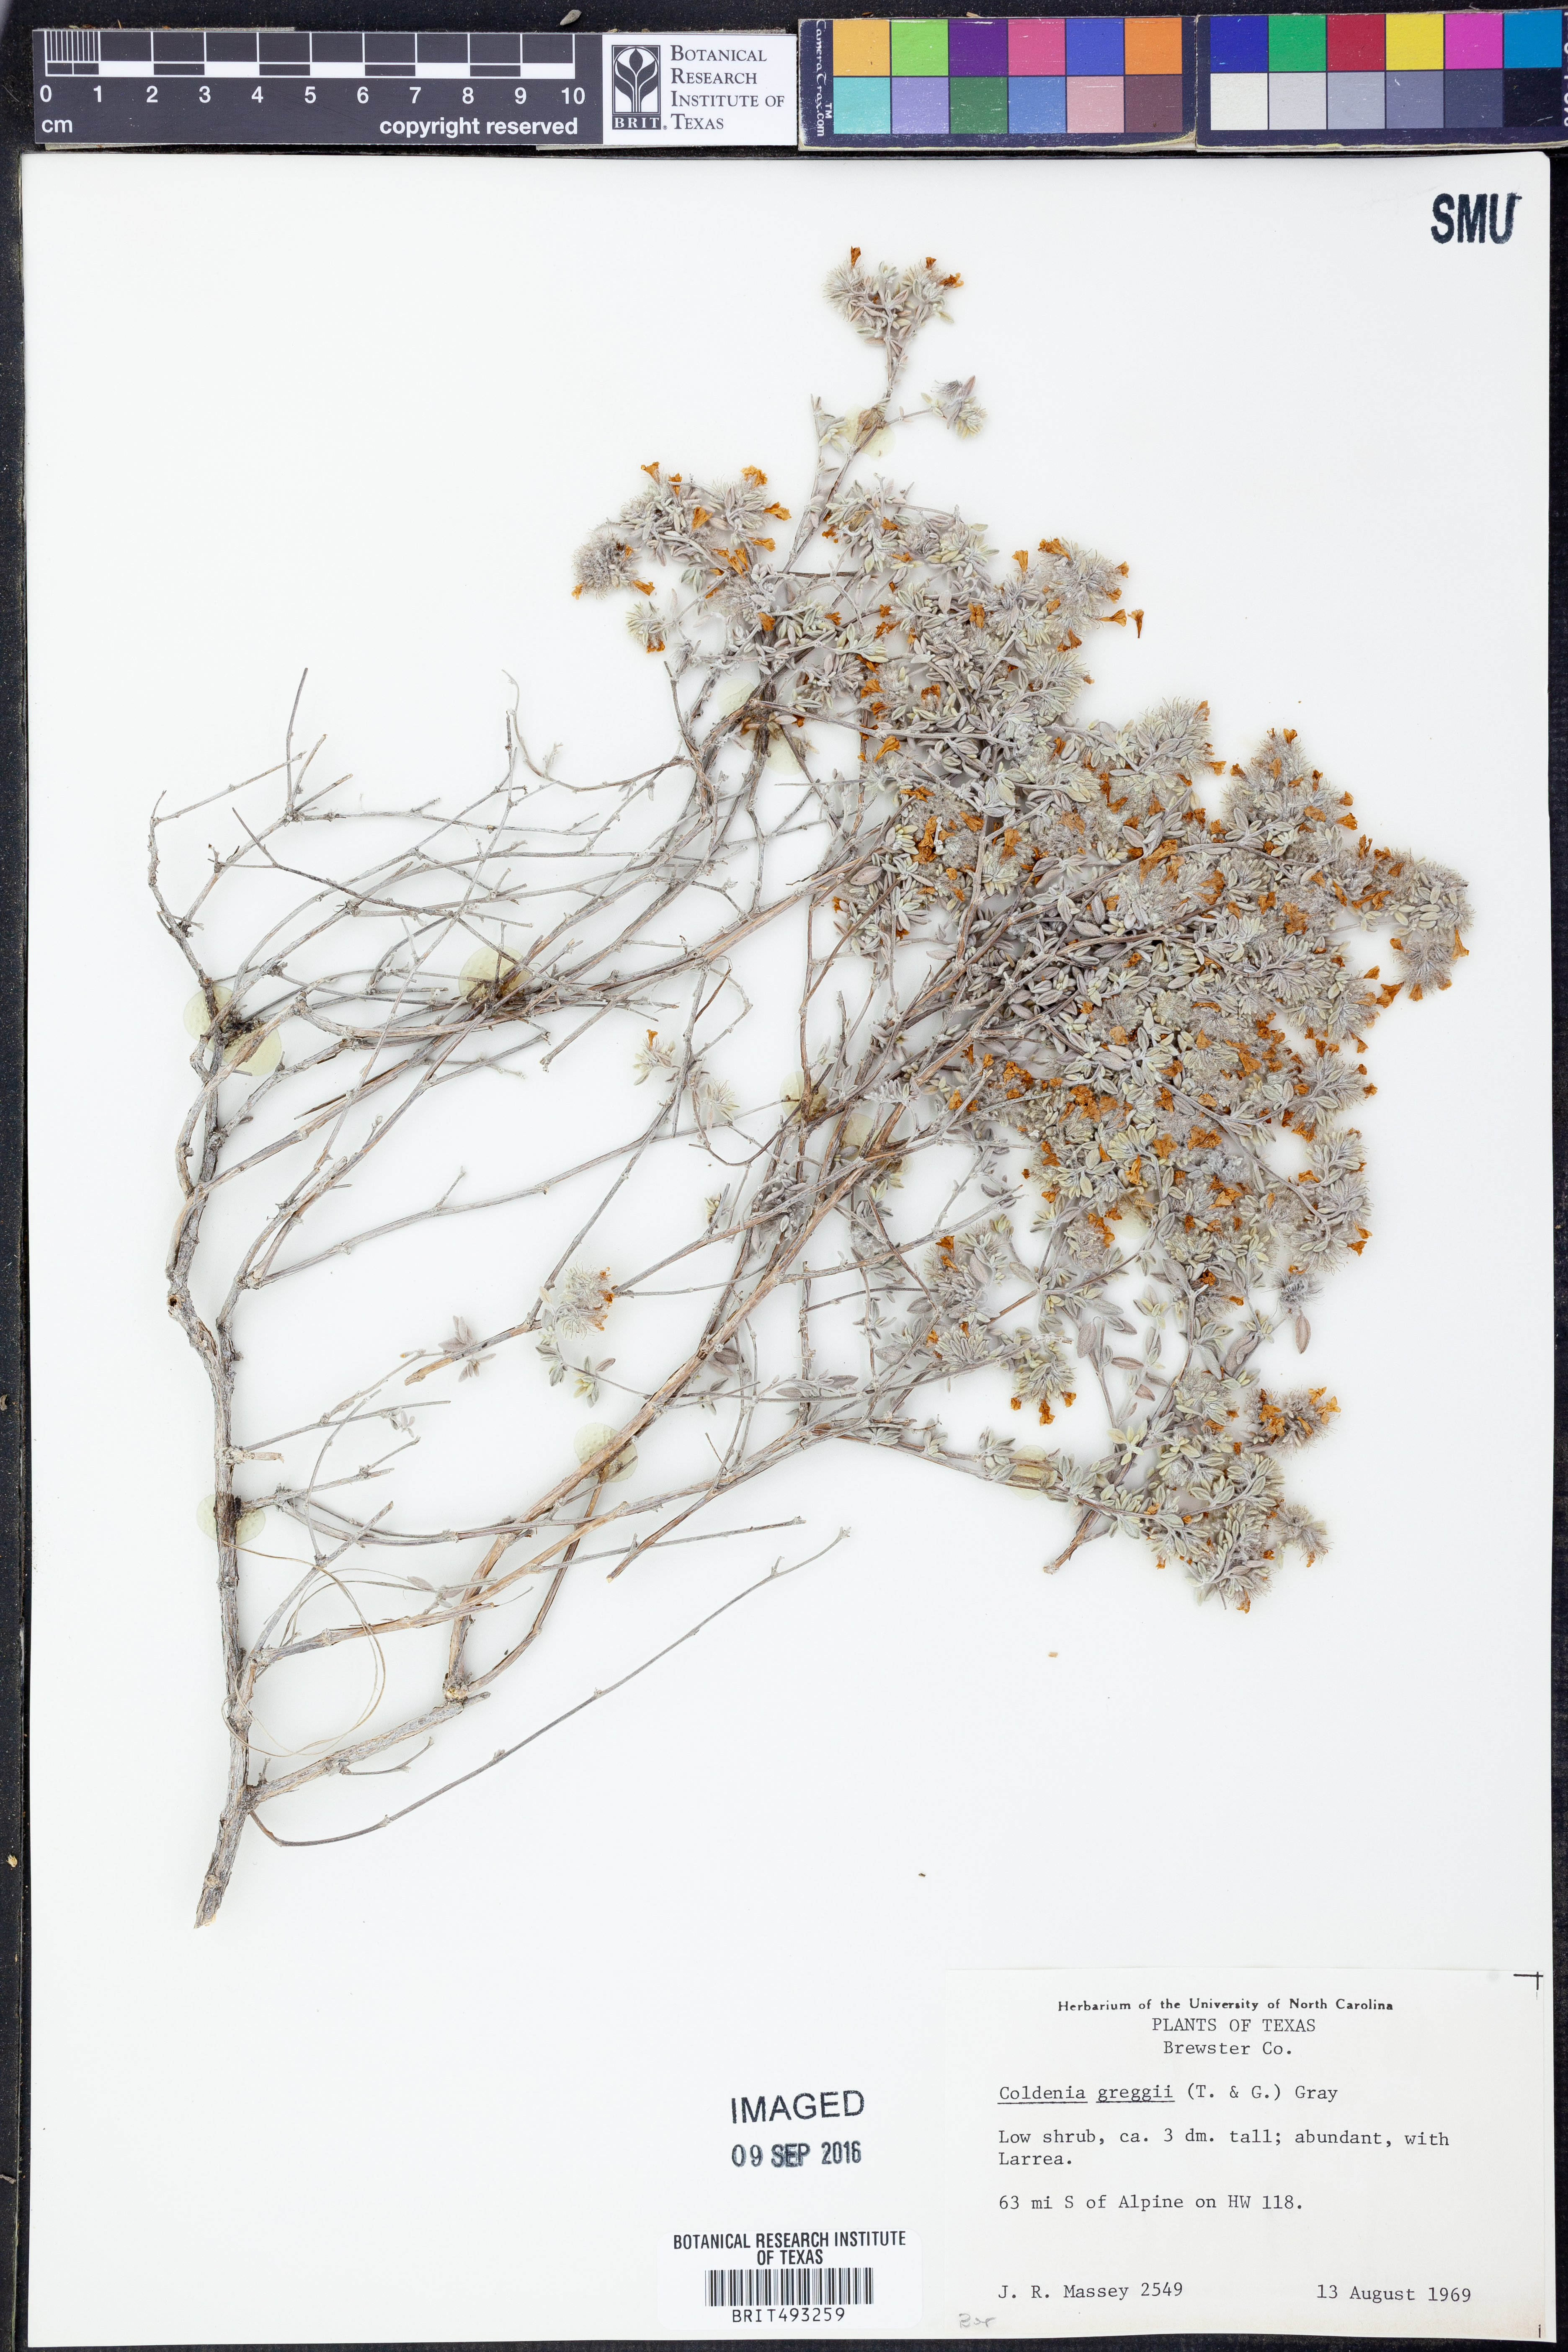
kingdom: Plantae
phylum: Tracheophyta
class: Magnoliopsida
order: Boraginales
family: Ehretiaceae
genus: Tiquilia
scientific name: Tiquilia greggii
